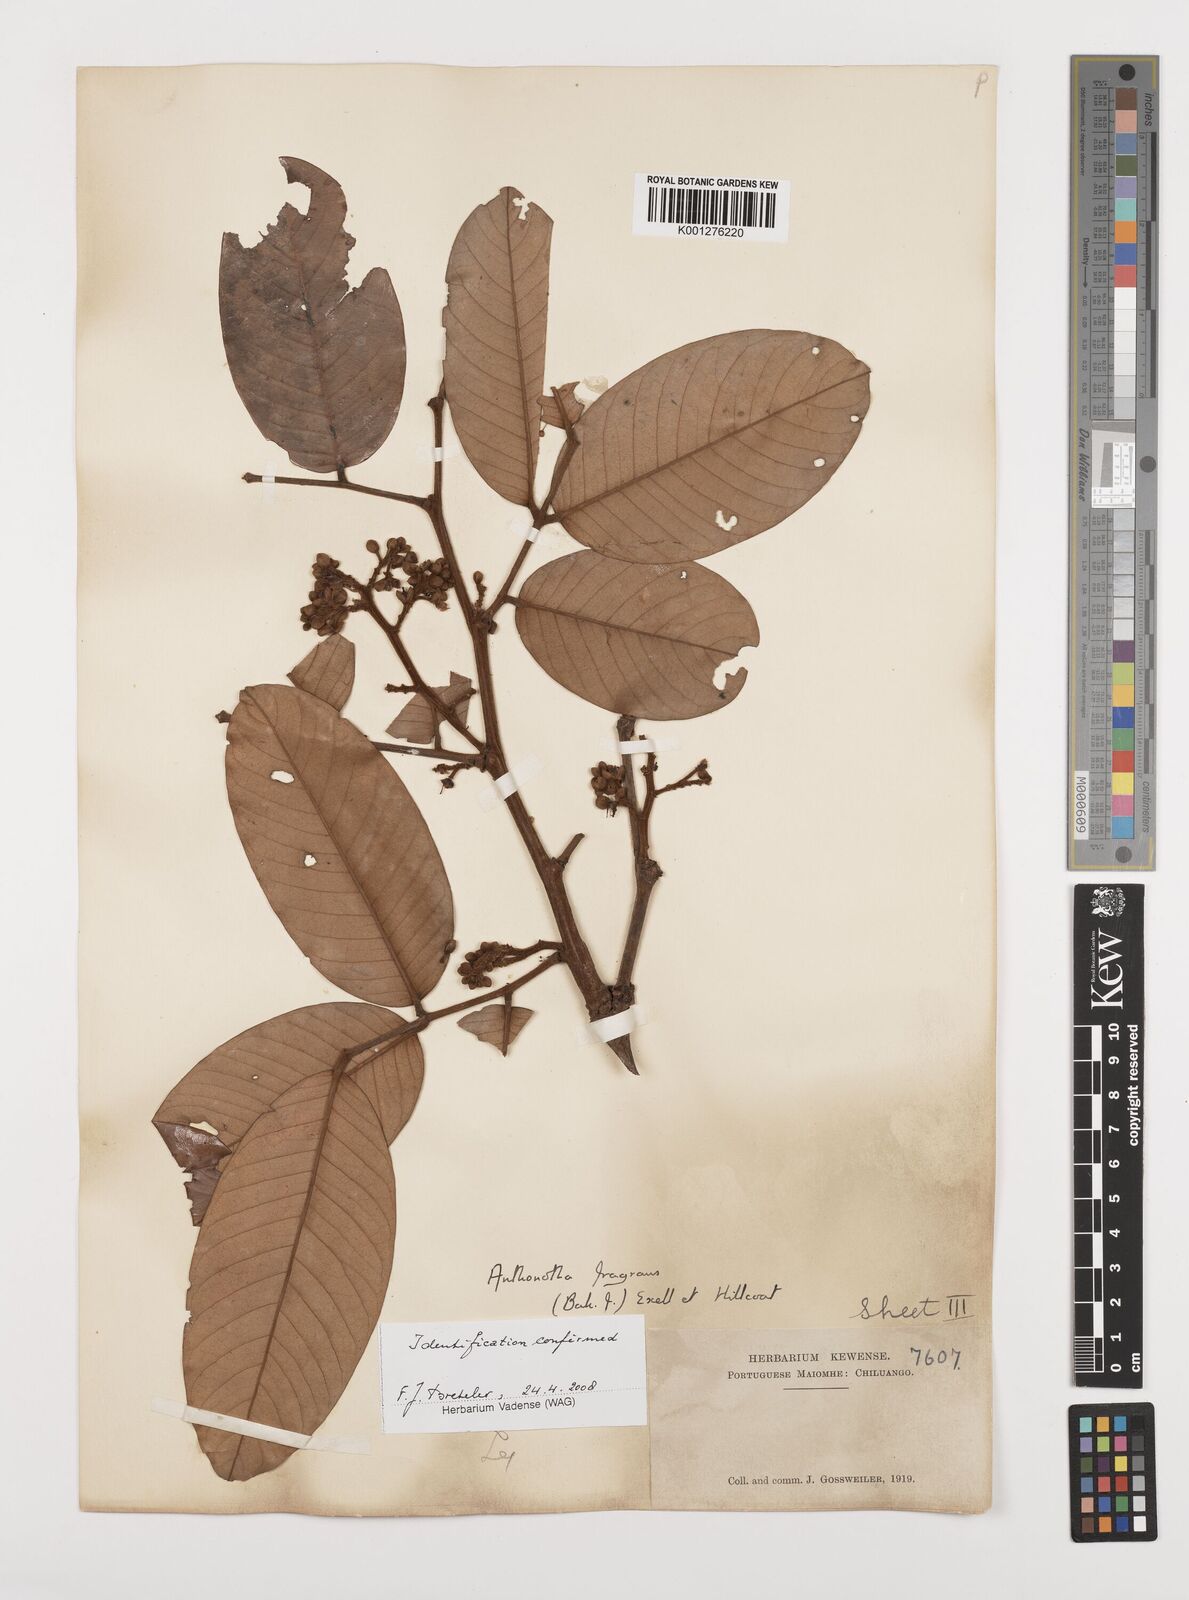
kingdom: Plantae
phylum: Tracheophyta
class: Magnoliopsida
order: Fabales
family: Fabaceae
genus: Anthonotha
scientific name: Anthonotha fragrans
